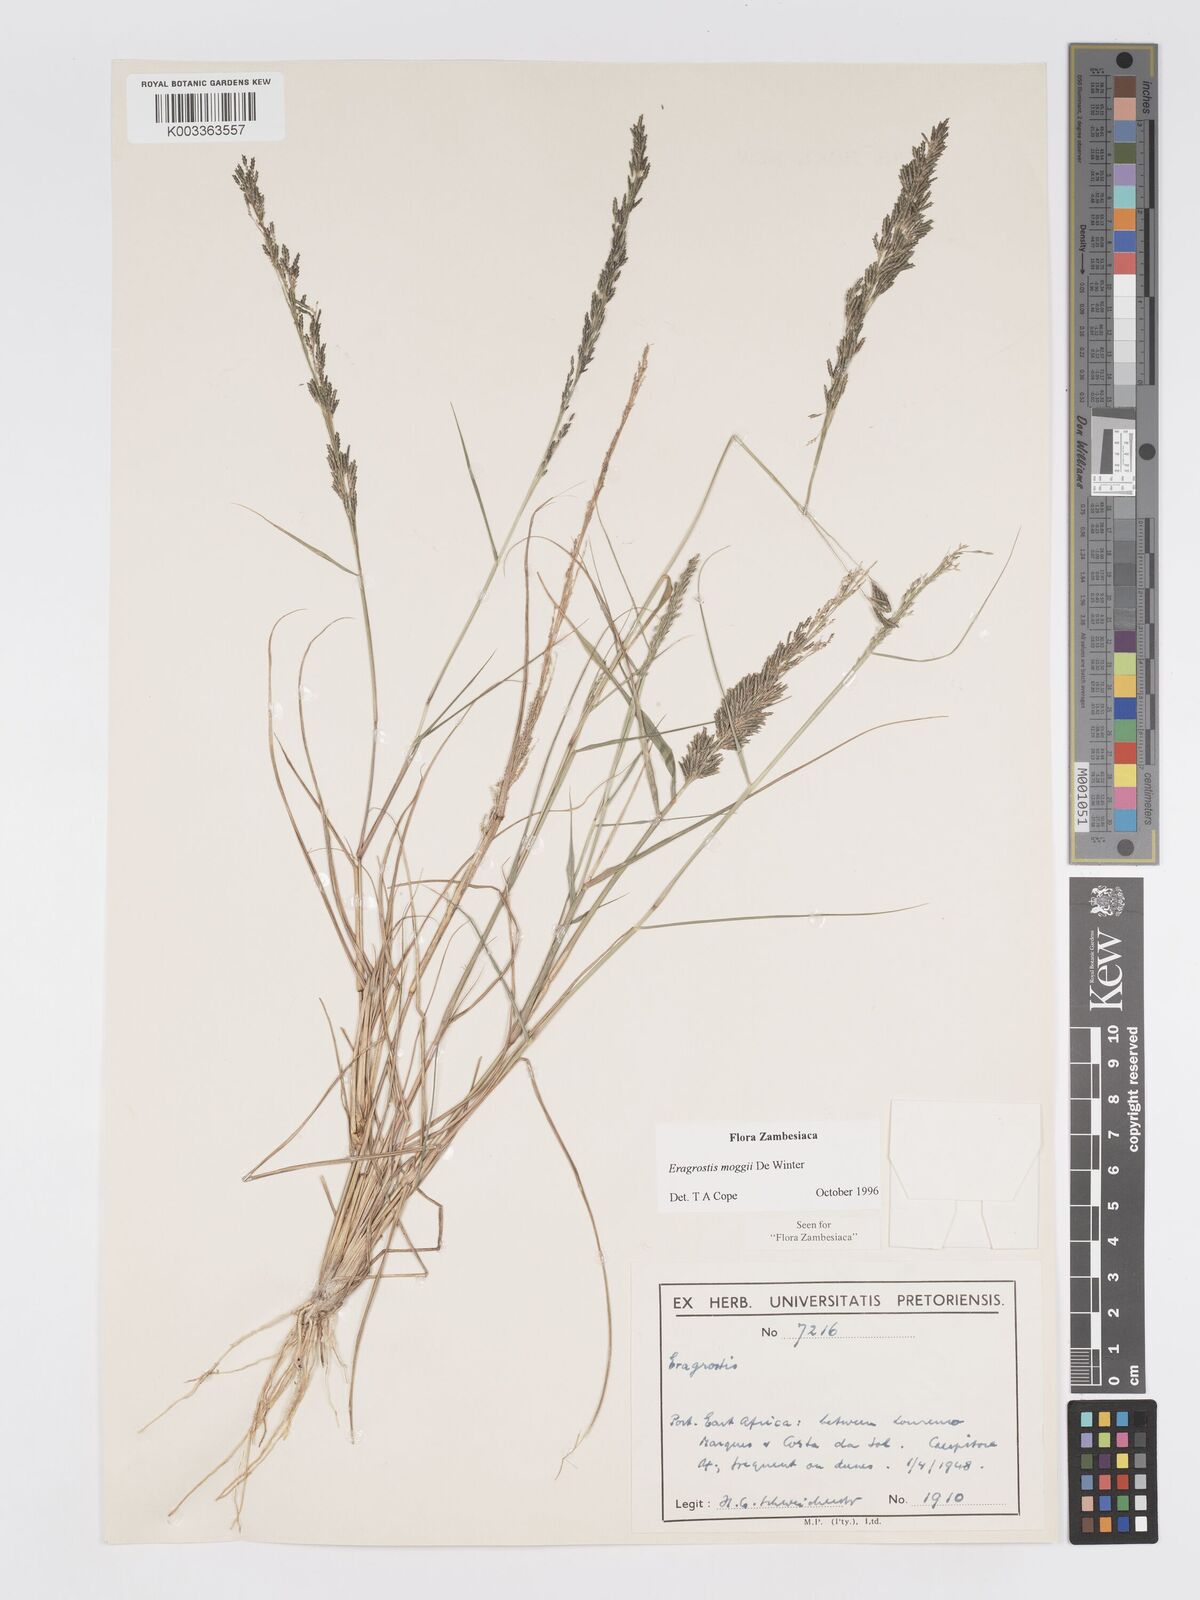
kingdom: Plantae
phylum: Tracheophyta
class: Liliopsida
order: Poales
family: Poaceae
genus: Eragrostis
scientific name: Eragrostis moggii
